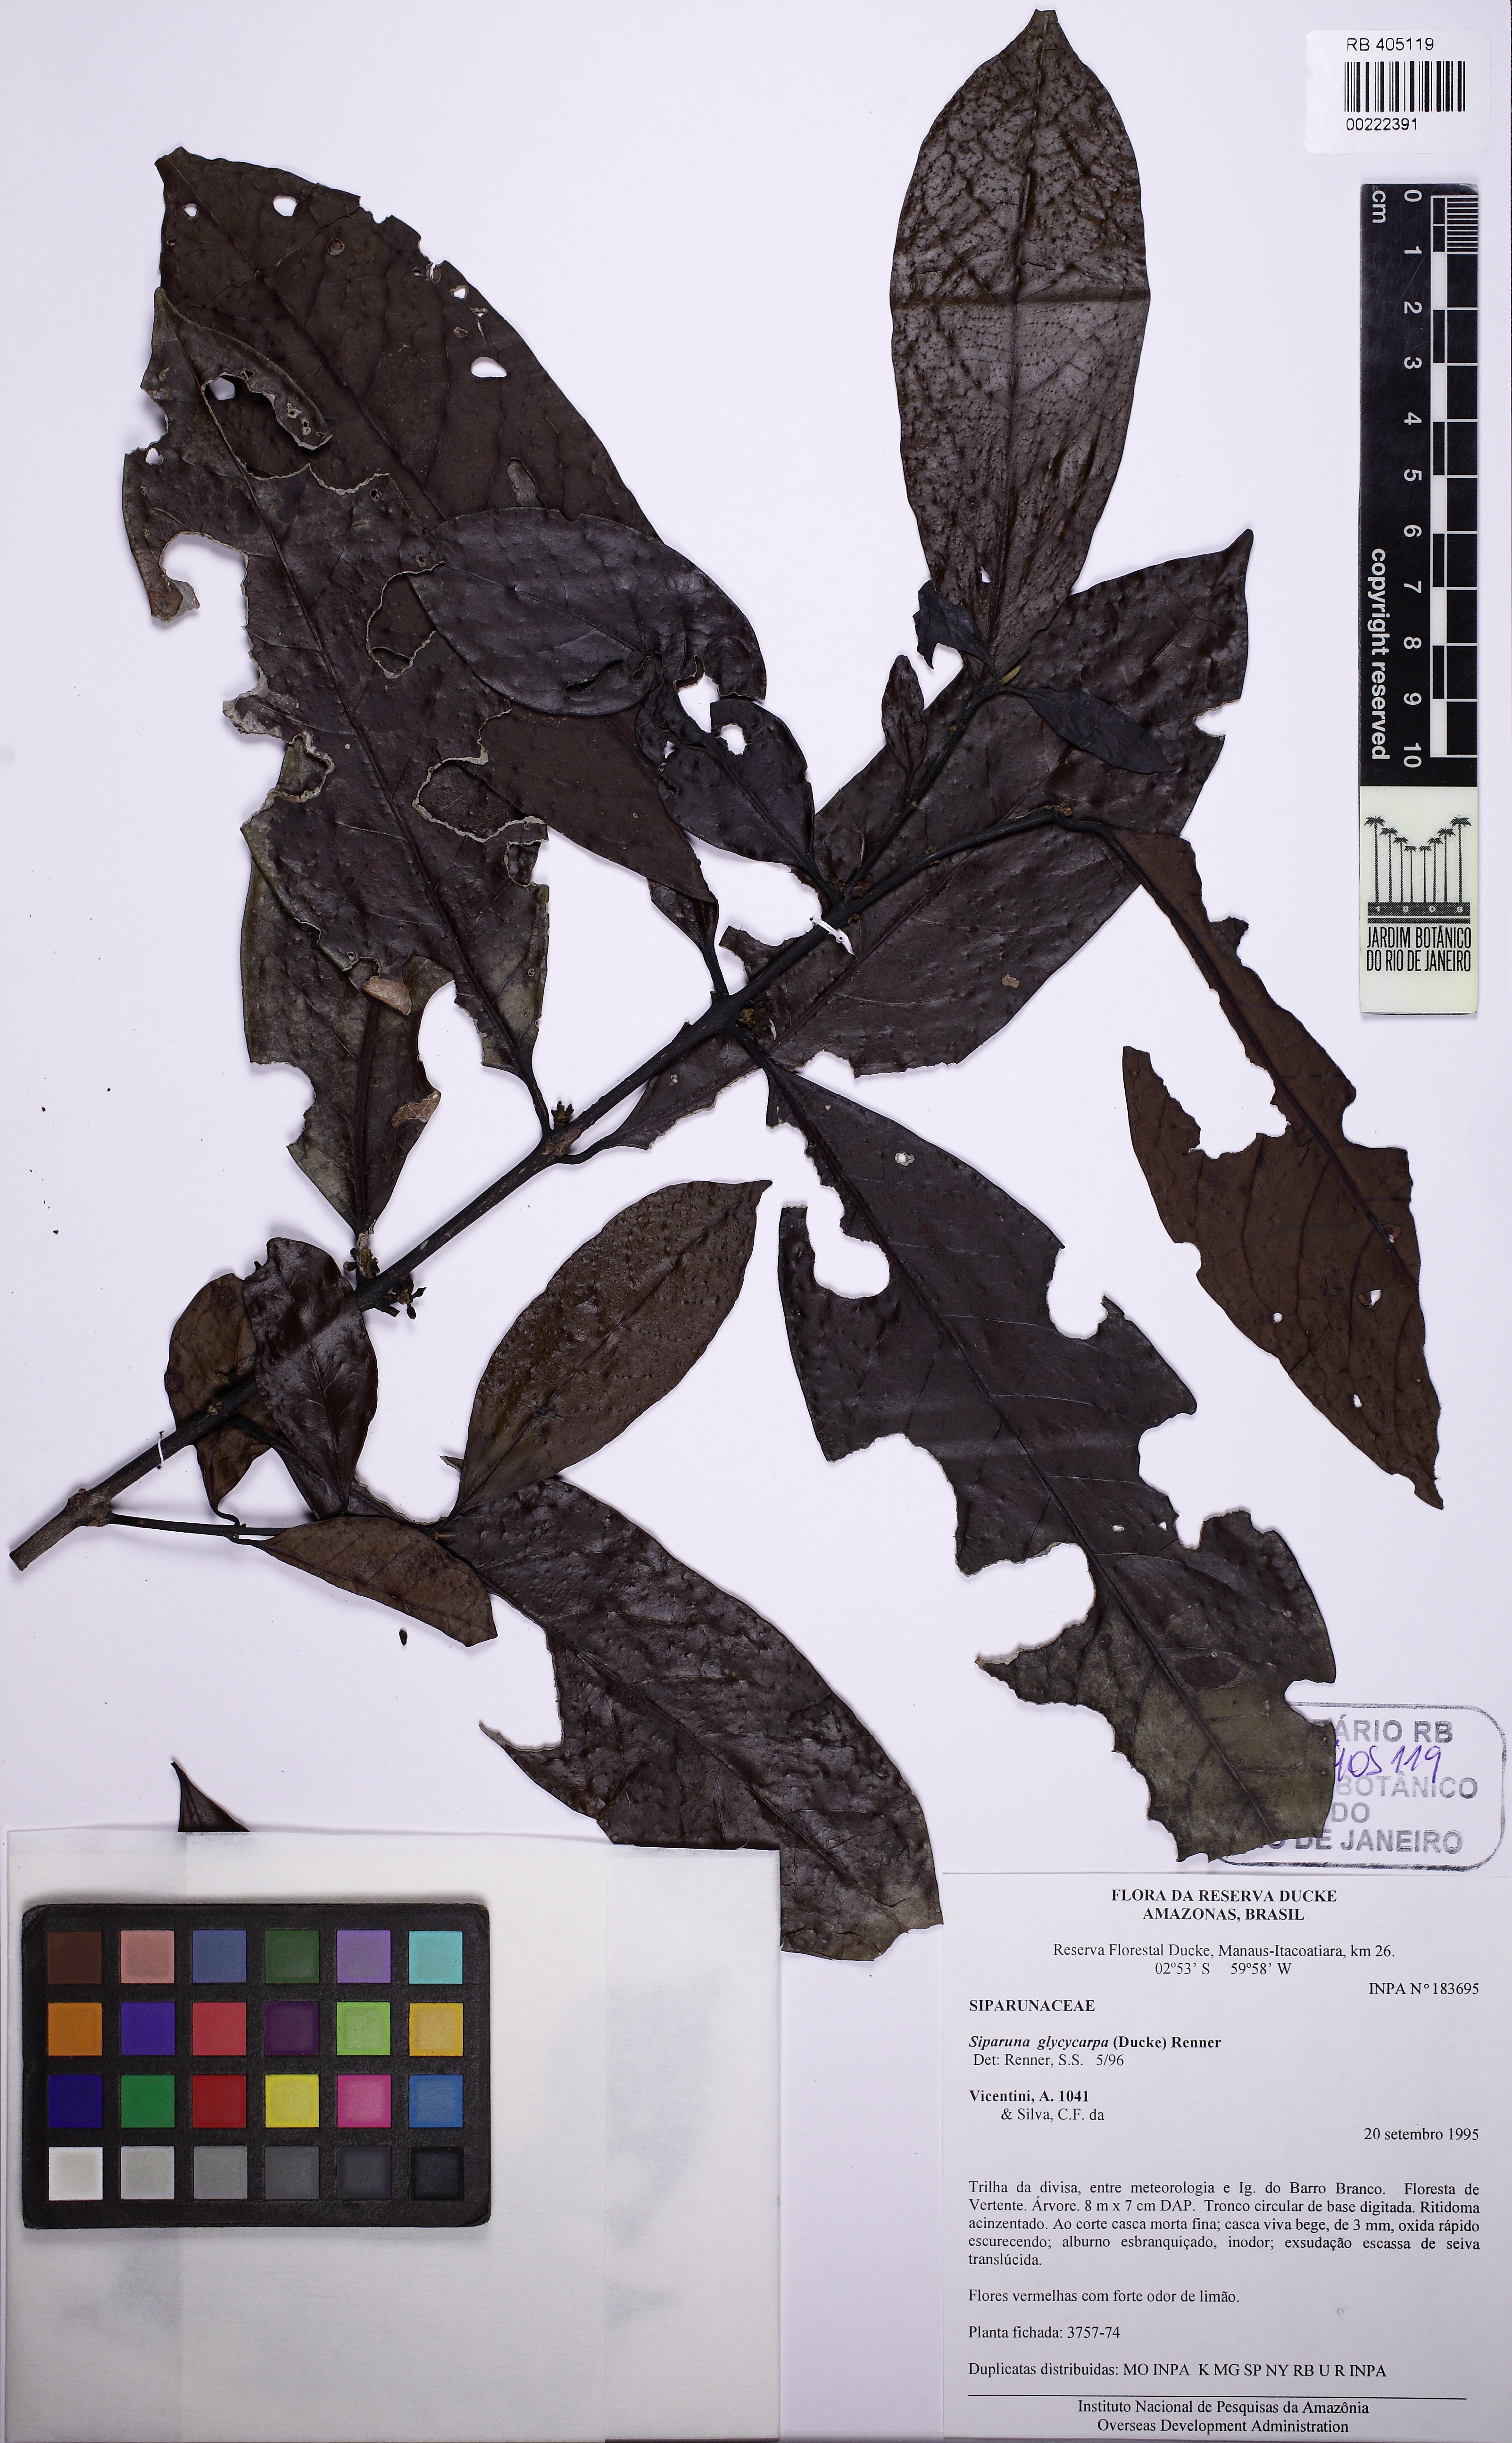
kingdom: Plantae
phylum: Tracheophyta
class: Magnoliopsida
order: Laurales
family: Siparunaceae
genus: Siparuna
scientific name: Siparuna glycycarpa
